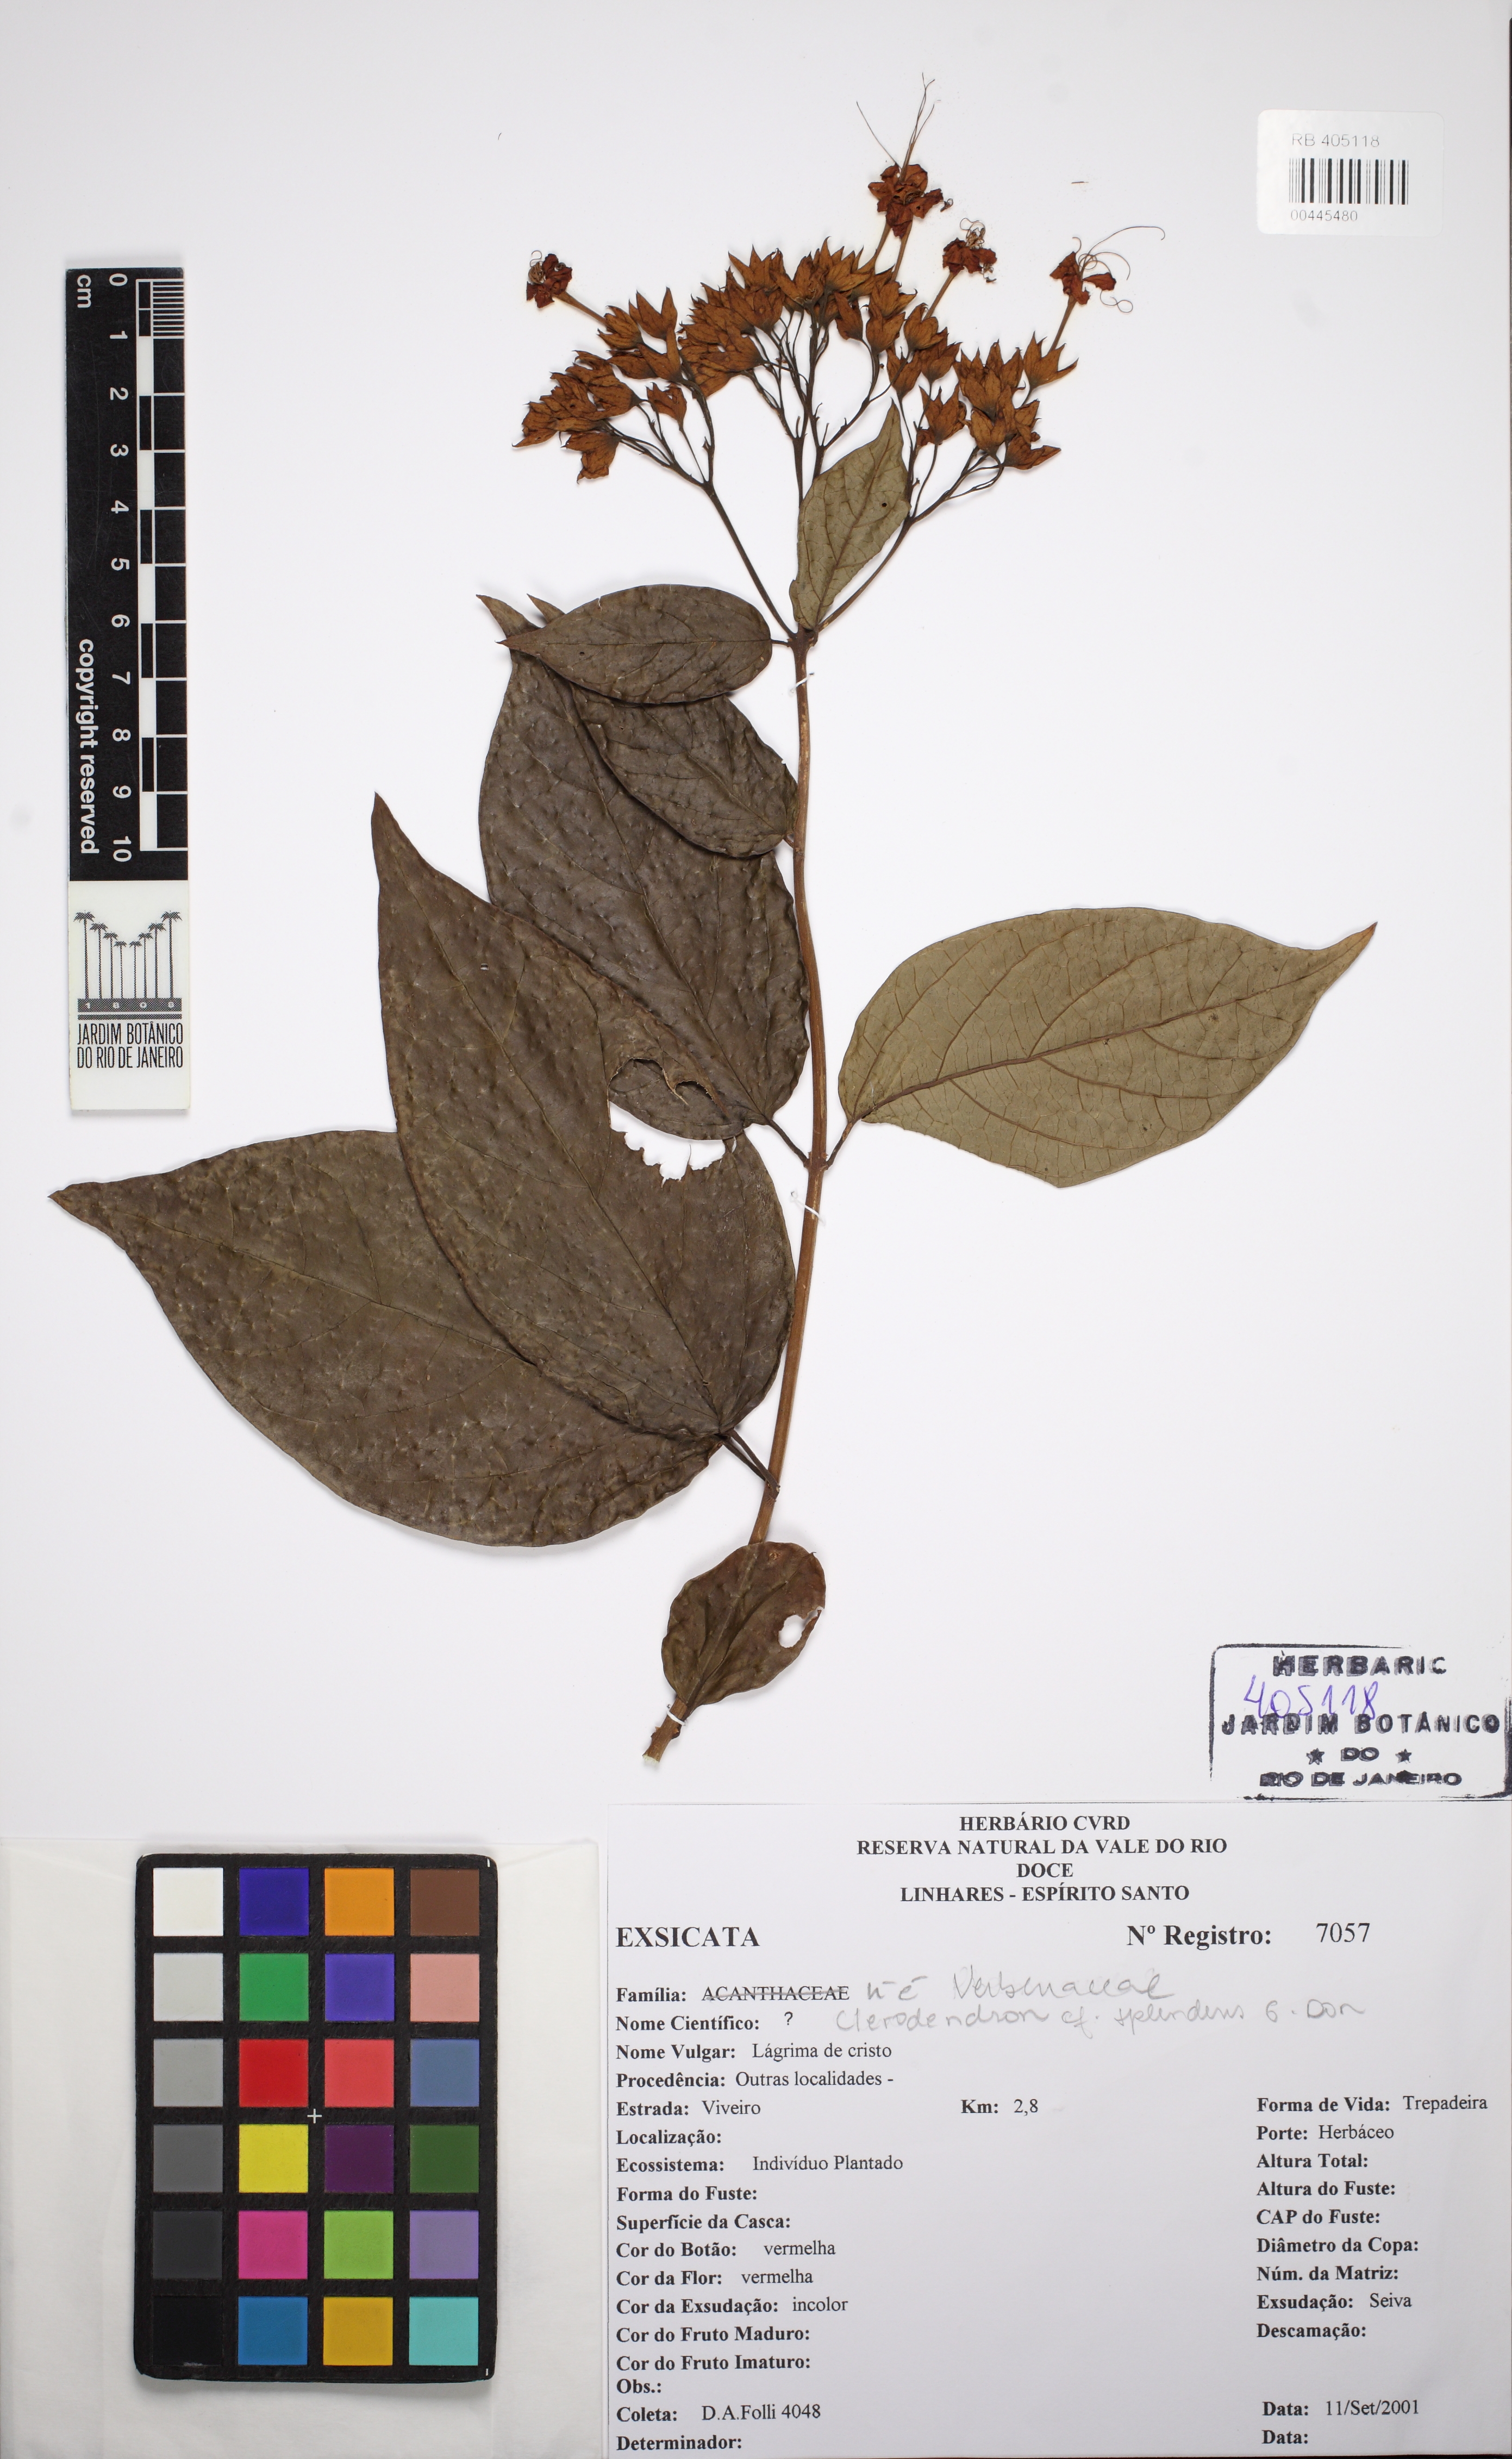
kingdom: Plantae
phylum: Tracheophyta
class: Magnoliopsida
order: Lamiales
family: Verbenaceae
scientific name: Verbenaceae
